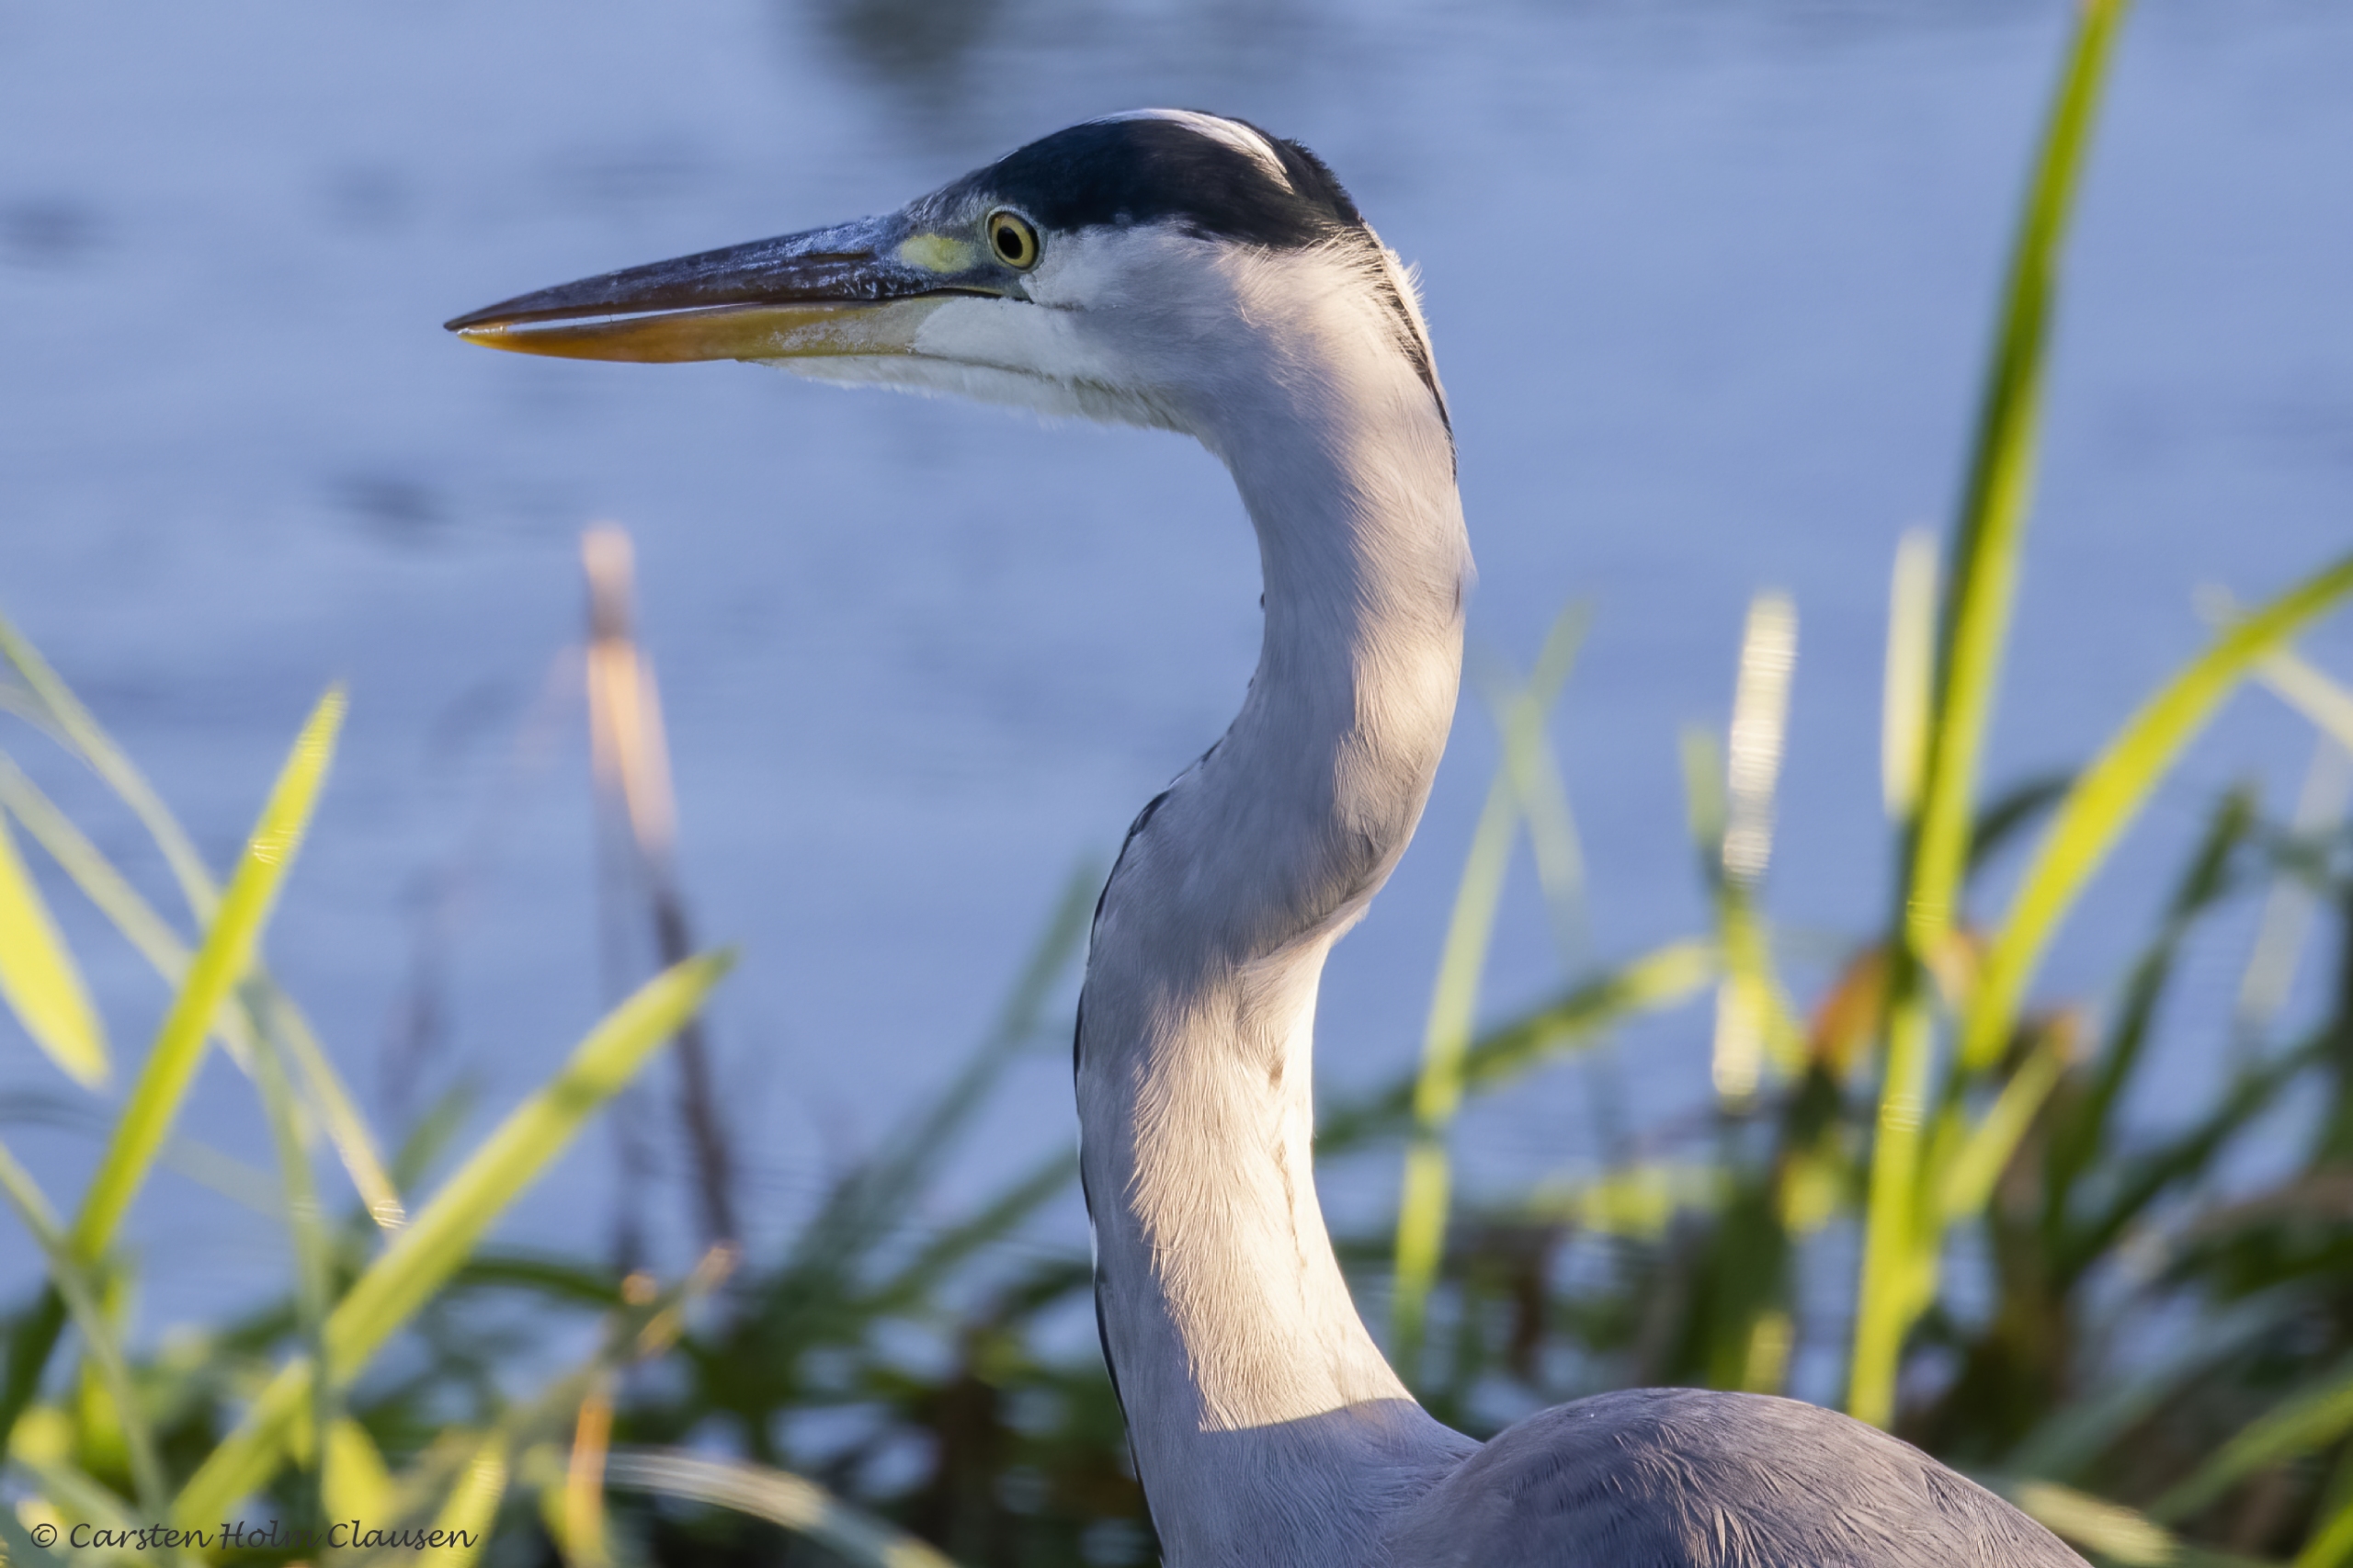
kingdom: Animalia
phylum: Chordata
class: Aves
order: Pelecaniformes
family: Ardeidae
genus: Ardea
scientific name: Ardea cinerea
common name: Fiskehejre
